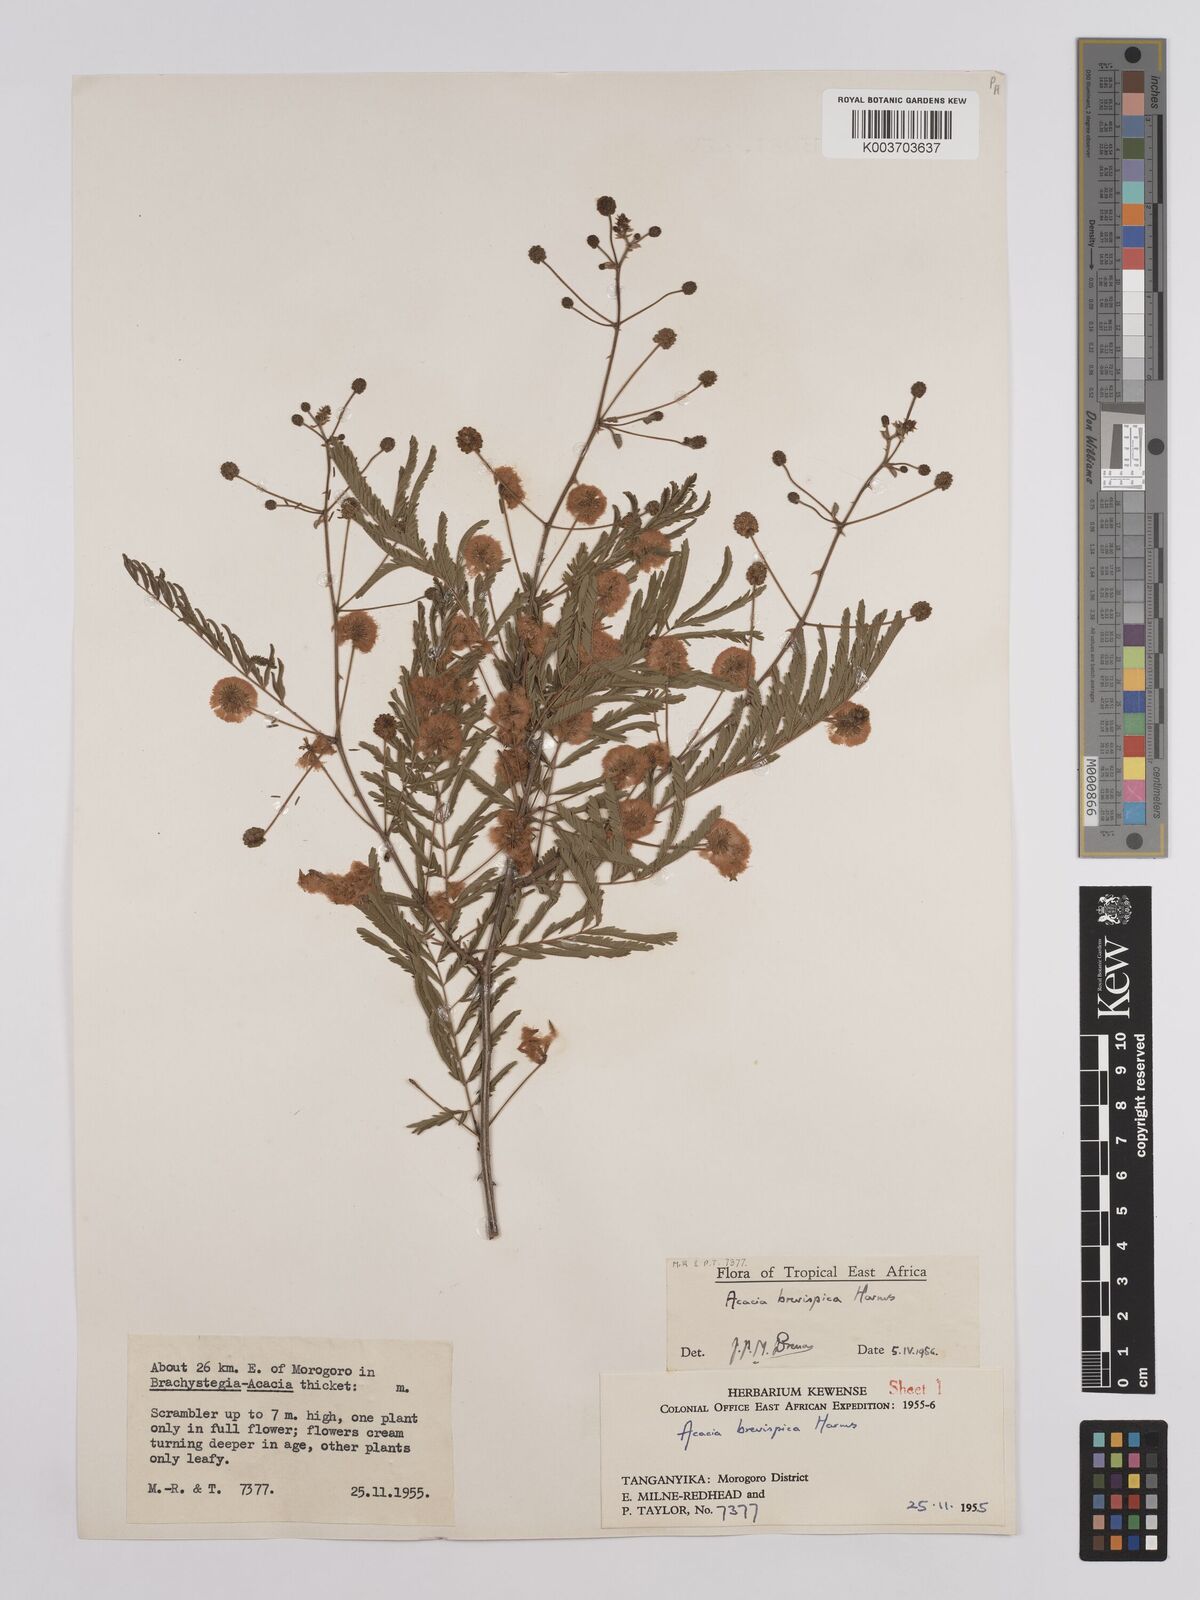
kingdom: Plantae
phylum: Tracheophyta
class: Magnoliopsida
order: Fabales
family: Fabaceae
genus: Senegalia
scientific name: Senegalia brevispica
